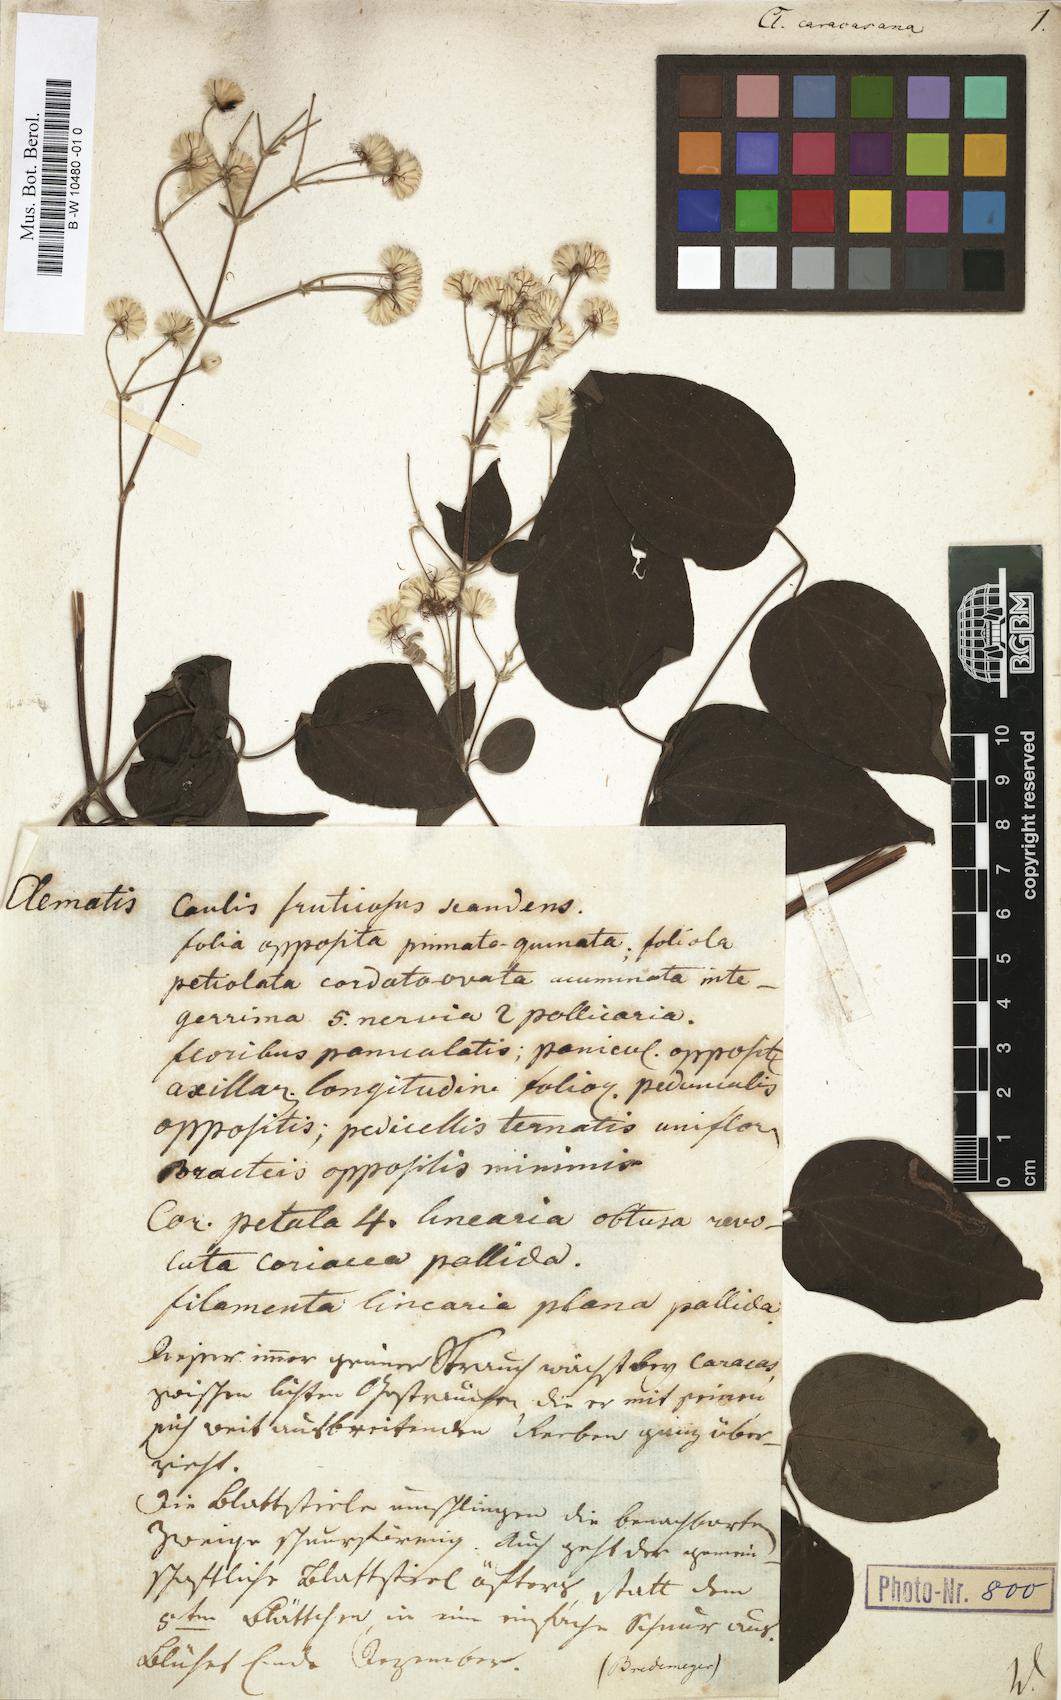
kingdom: Plantae
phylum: Tracheophyta
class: Magnoliopsida
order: Ranunculales
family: Ranunculaceae
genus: Clematis
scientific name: Clematis guadeloupae
